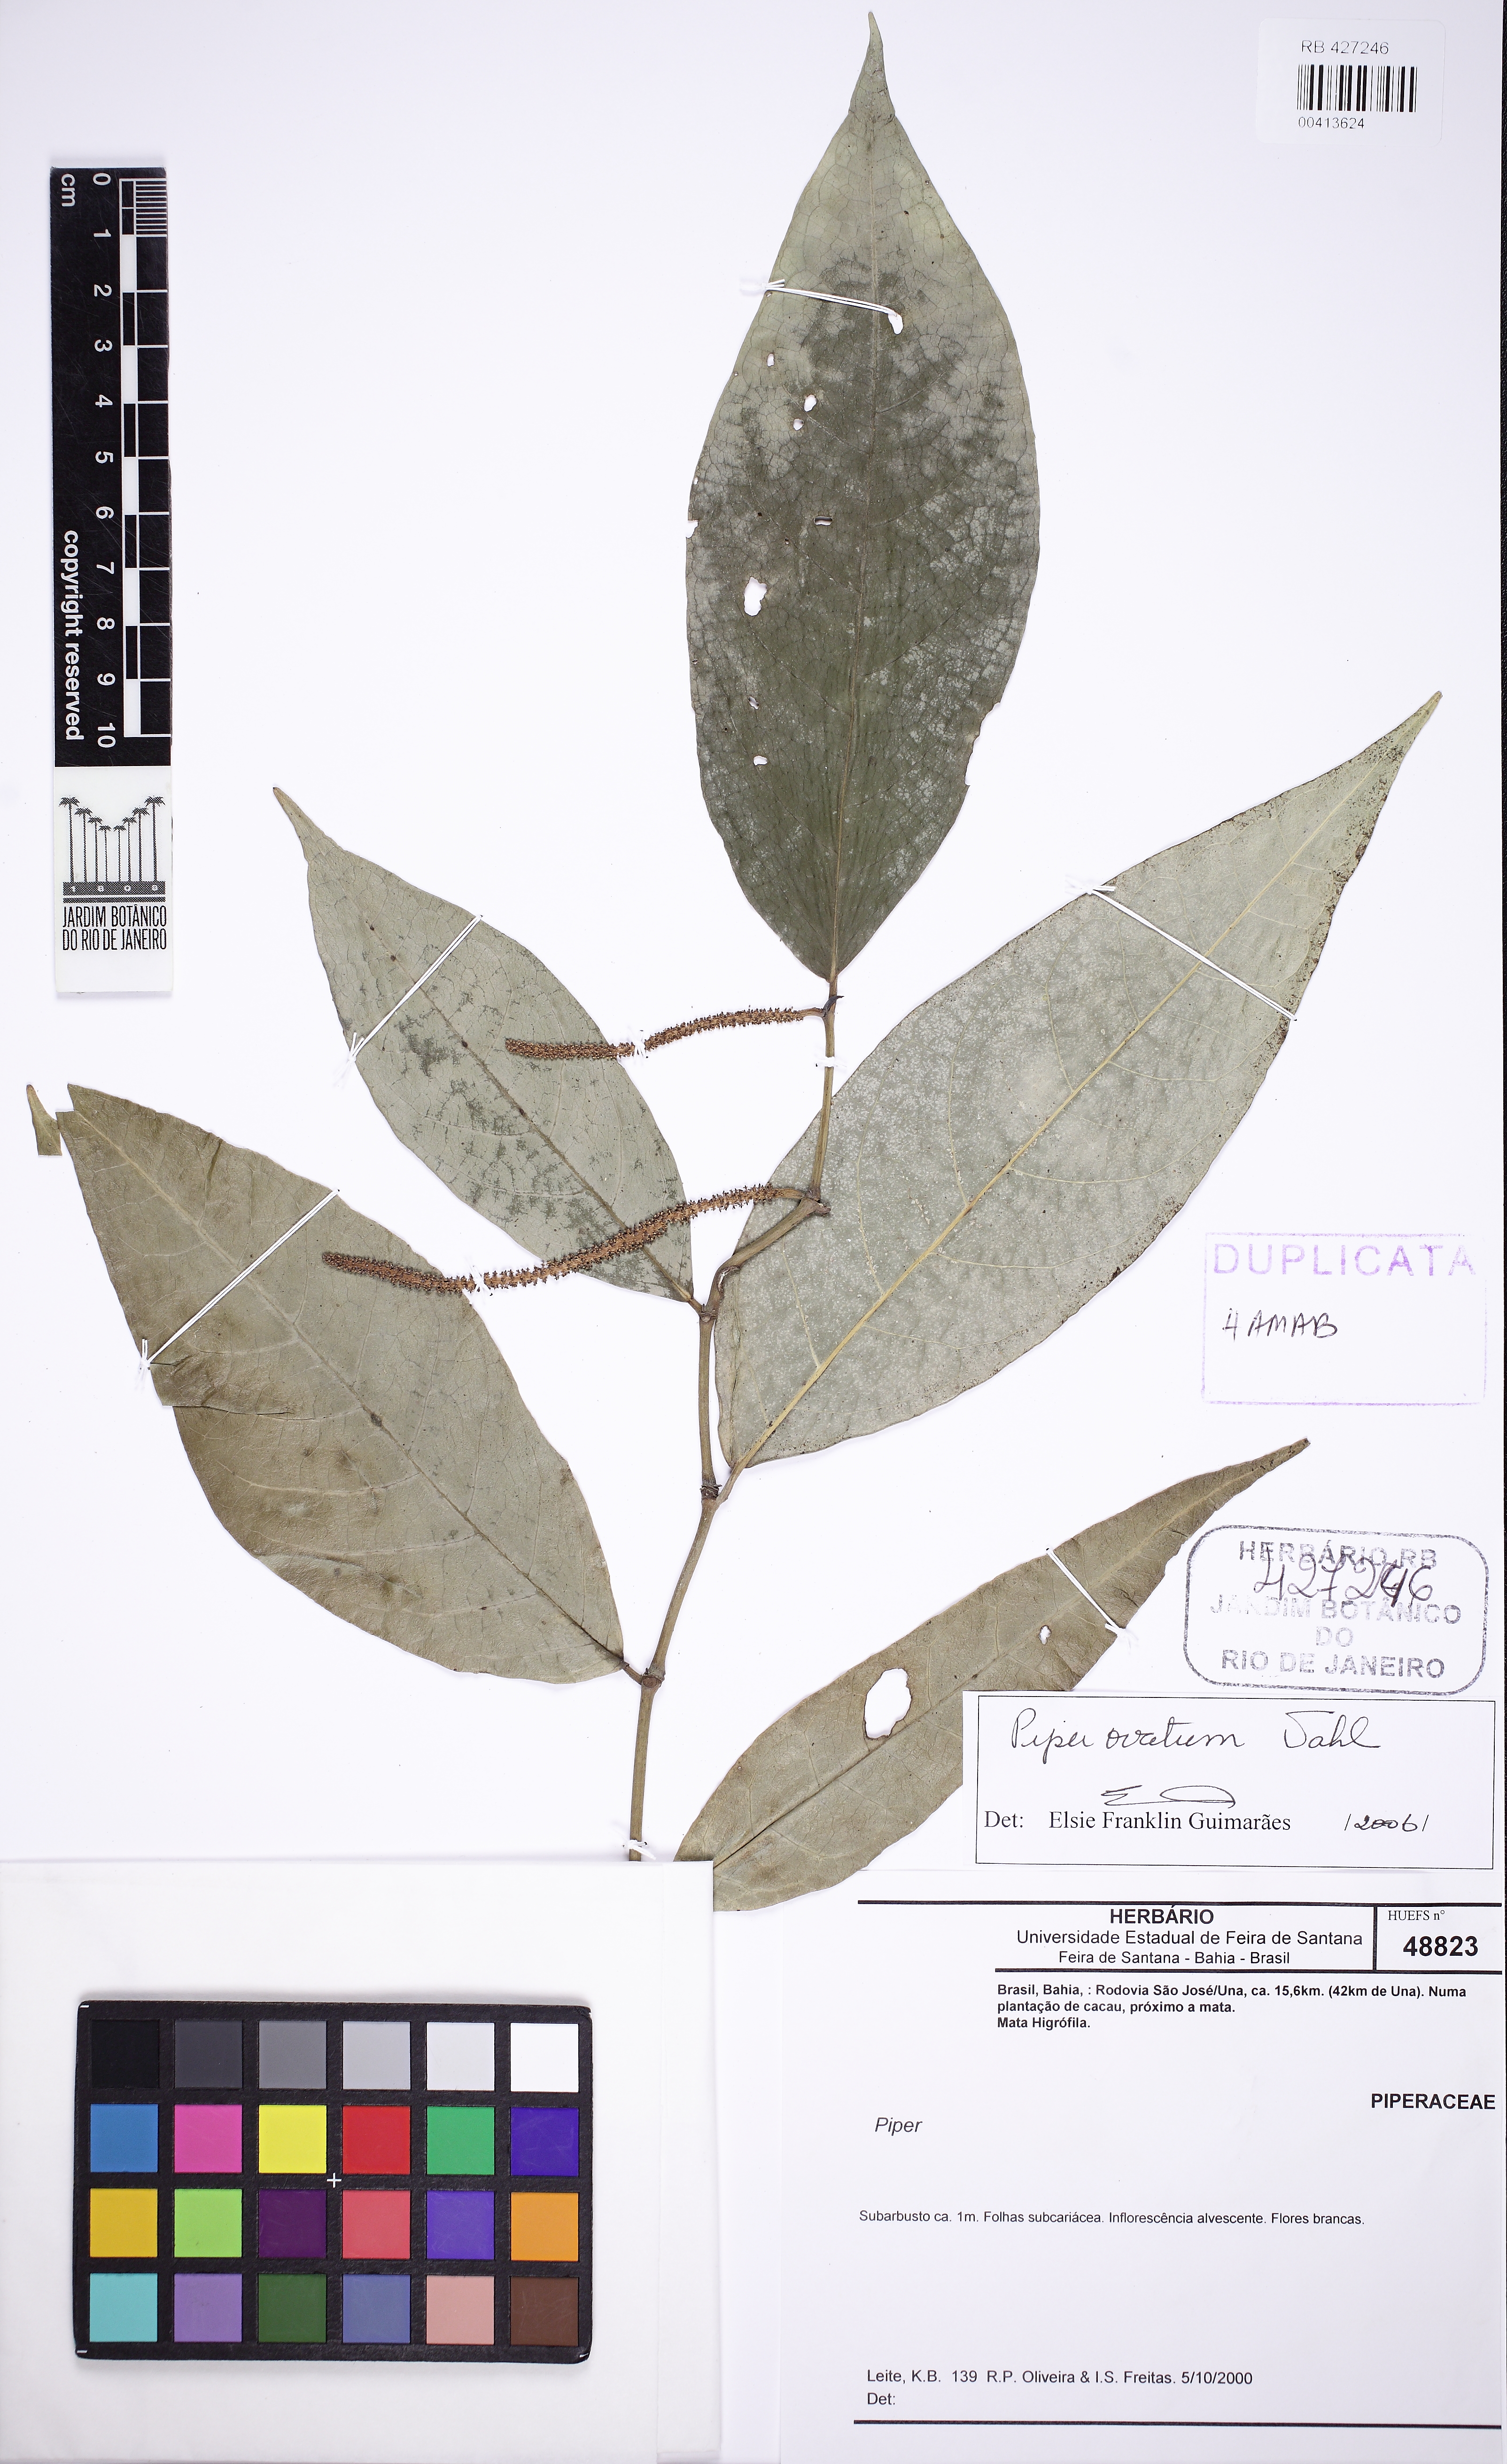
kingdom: Plantae
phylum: Tracheophyta
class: Magnoliopsida
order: Piperales
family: Piperaceae
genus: Piper
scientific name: Piper ovatum
